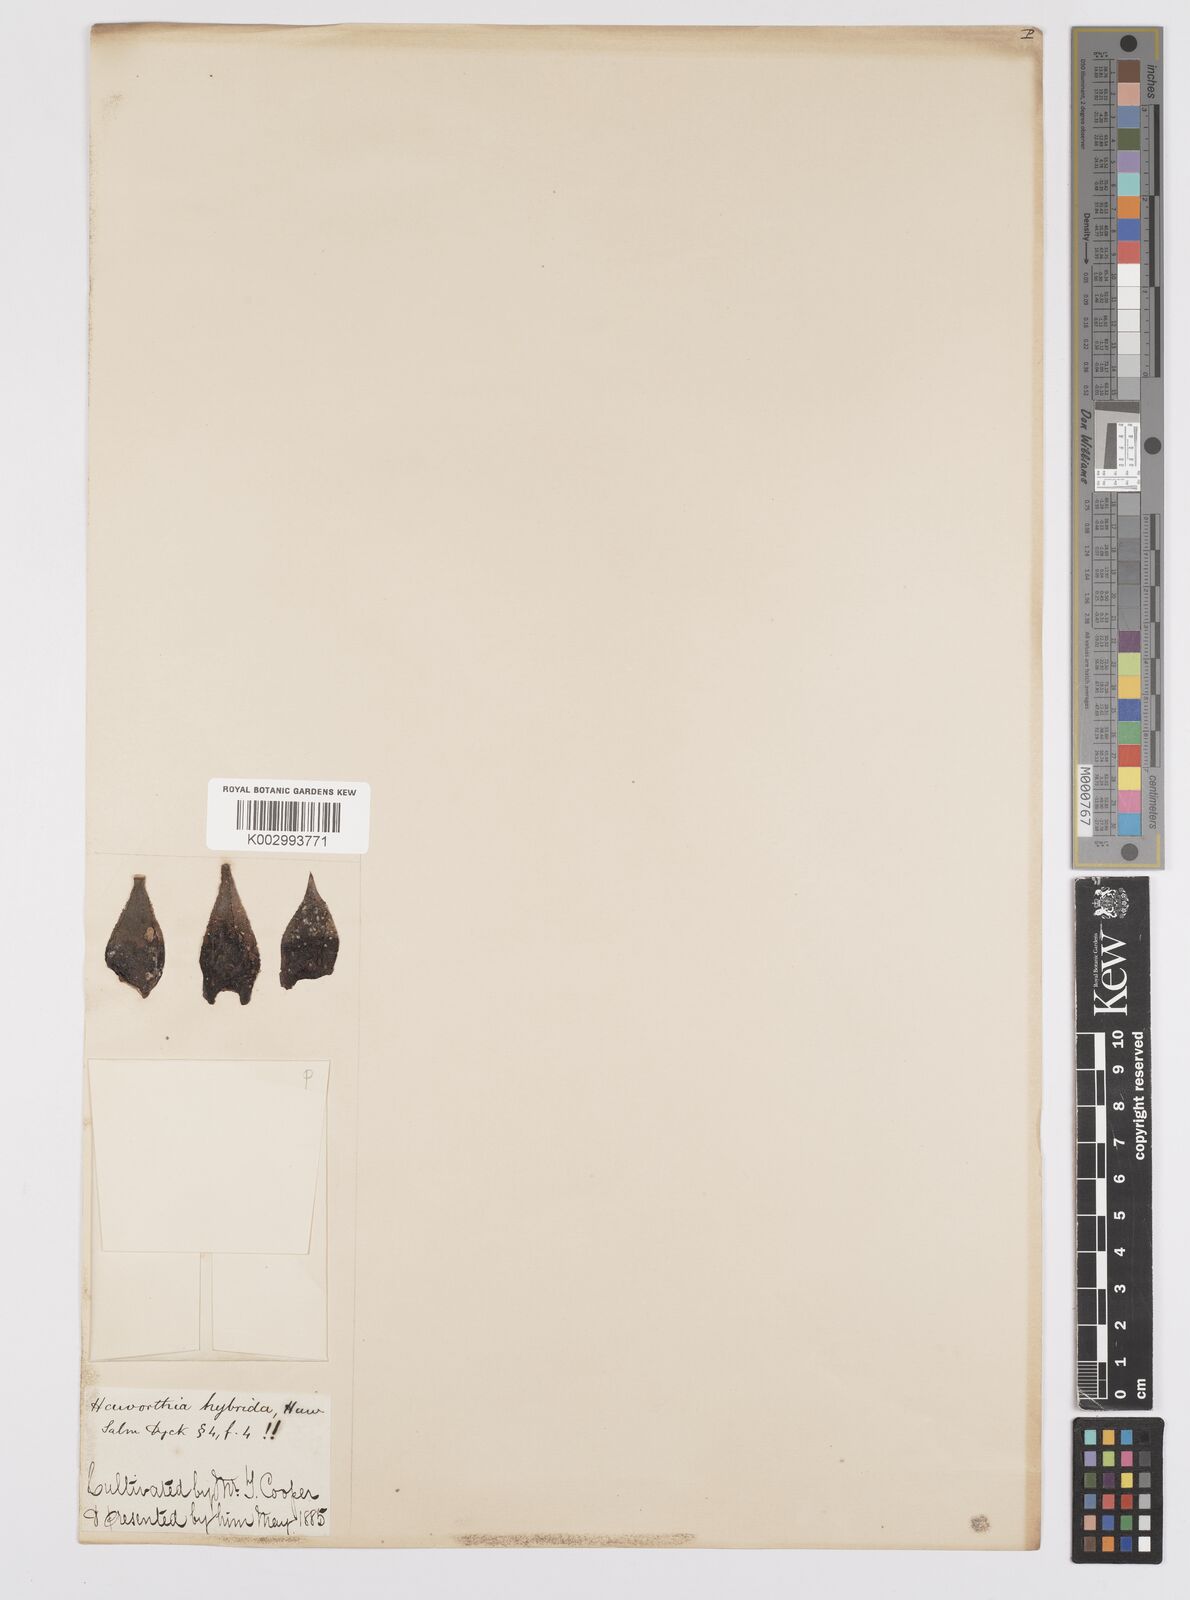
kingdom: Plantae
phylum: Tracheophyta
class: Liliopsida
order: Asparagales
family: Asphodelaceae
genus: Haworthiopsis
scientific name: Haworthiopsis hybrida
